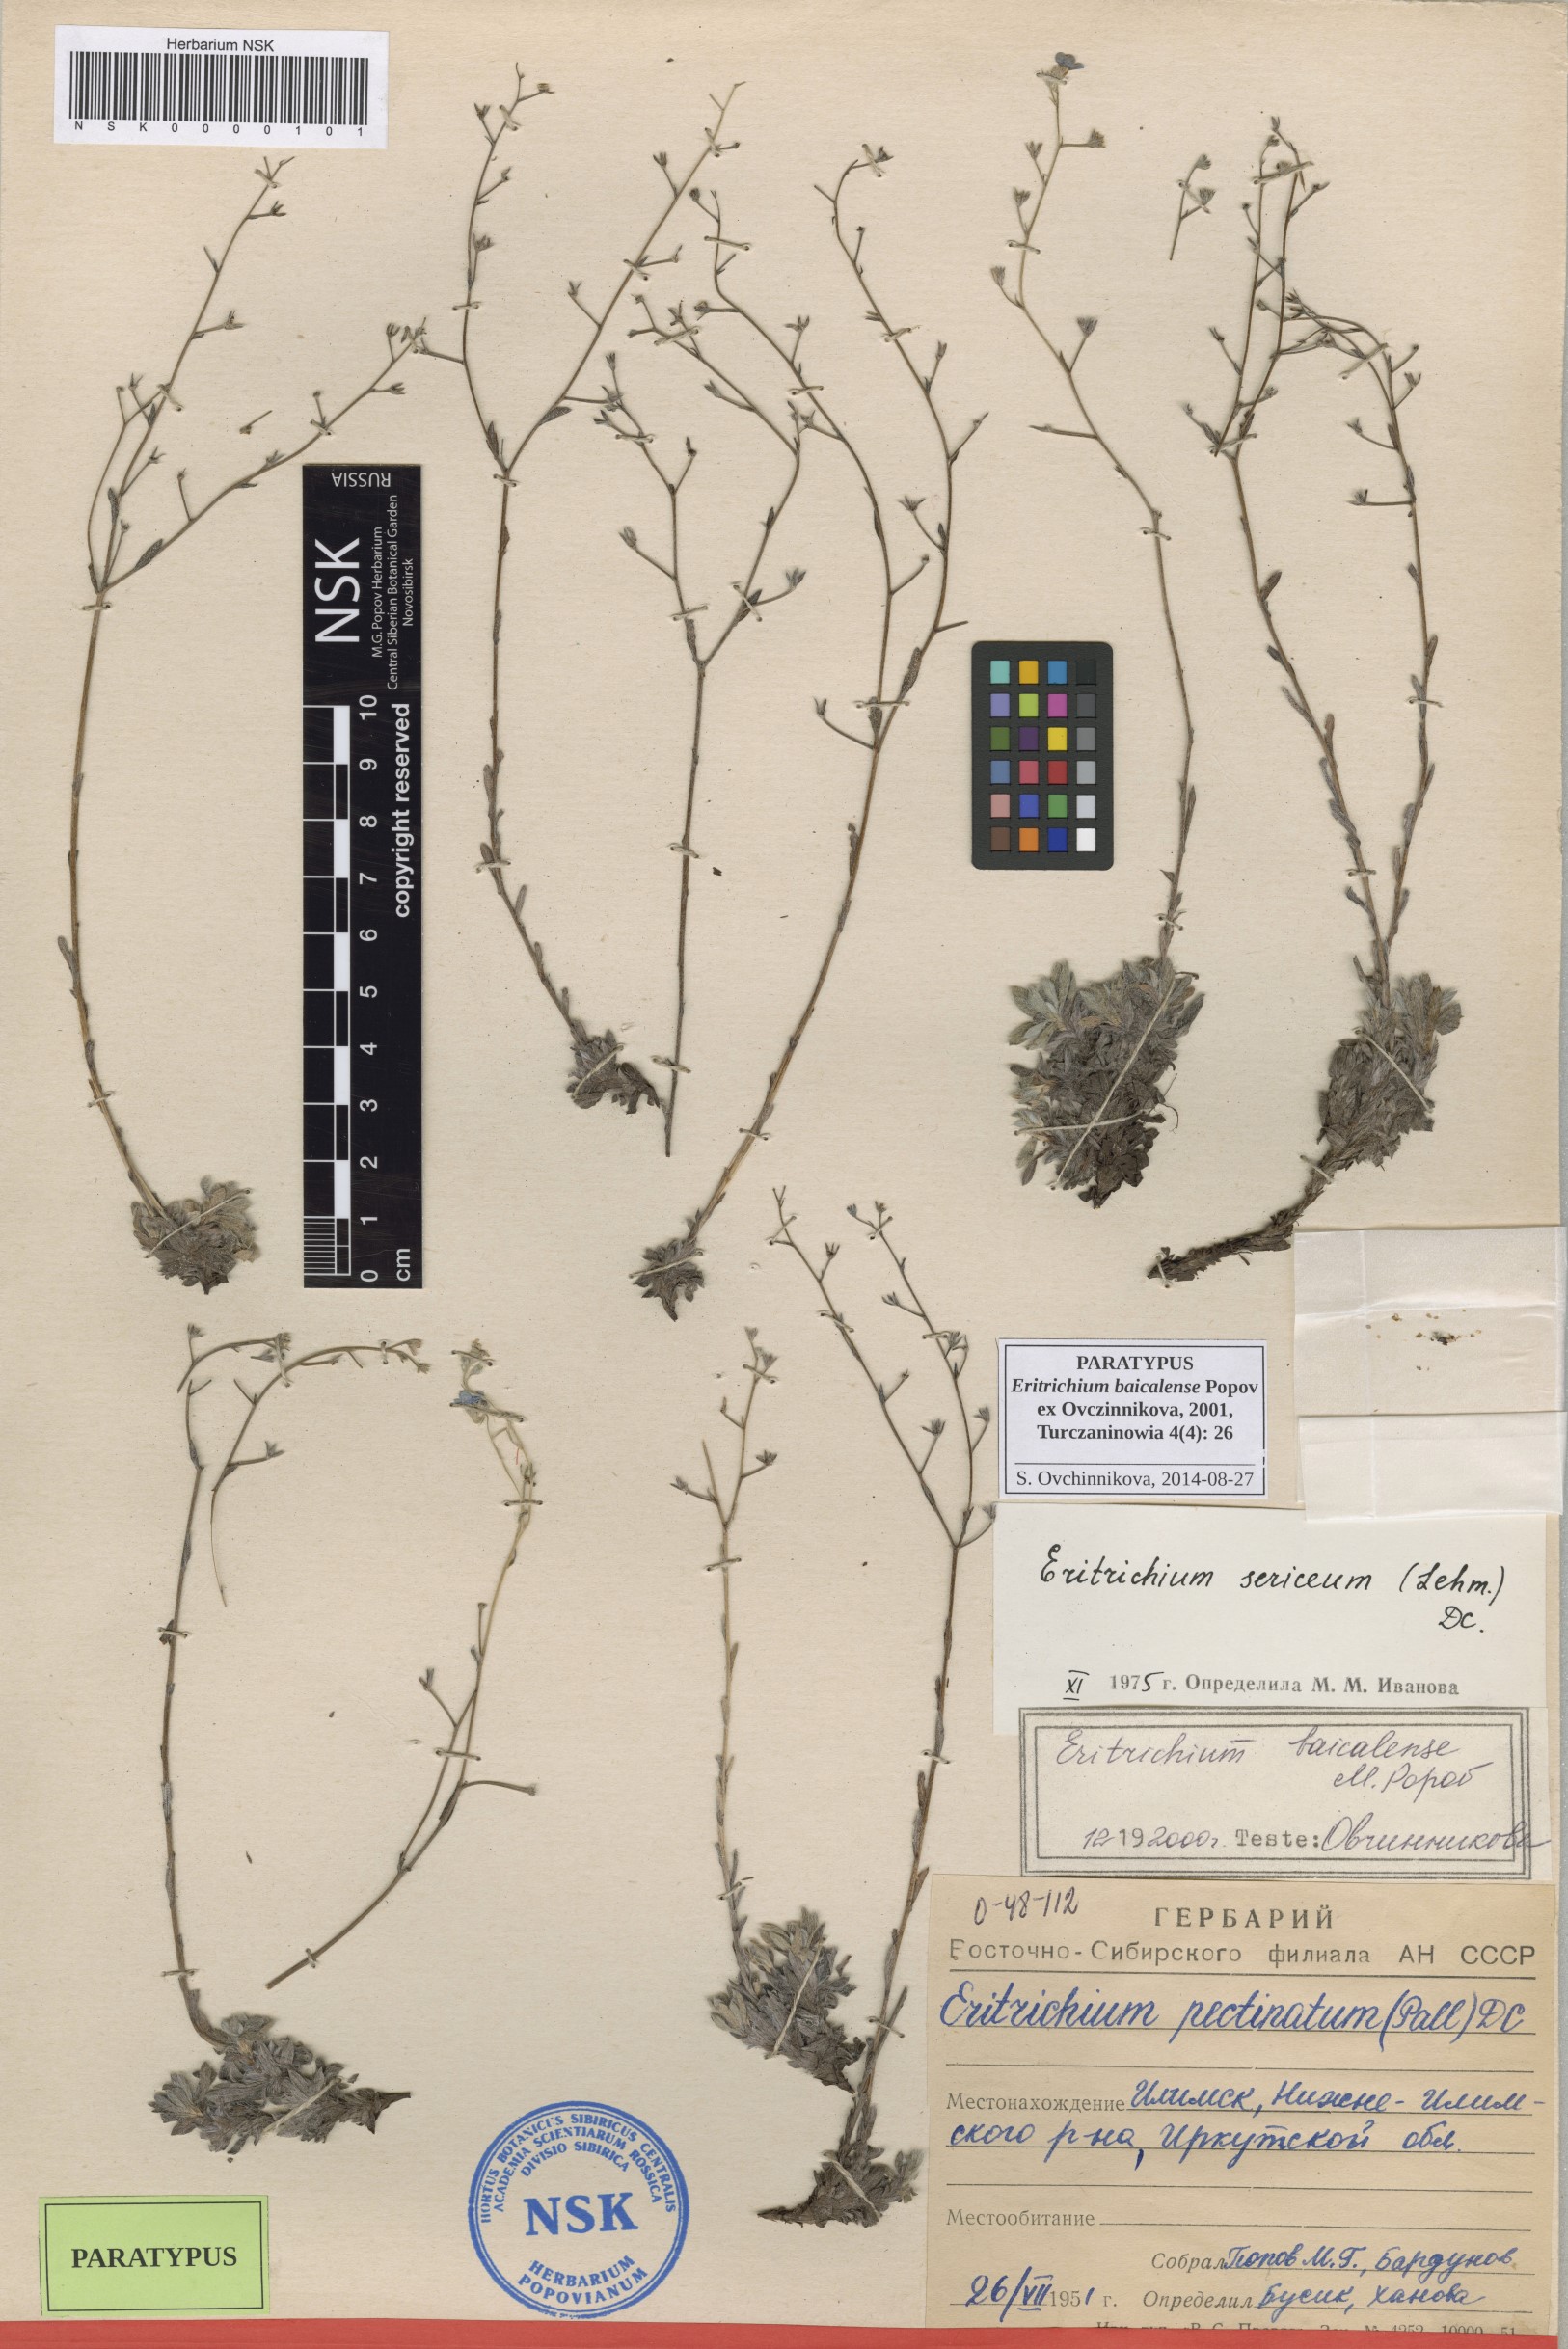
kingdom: Plantae
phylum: Tracheophyta
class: Magnoliopsida
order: Boraginales
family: Boraginaceae
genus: Eritrichium
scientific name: Eritrichium baicalense
